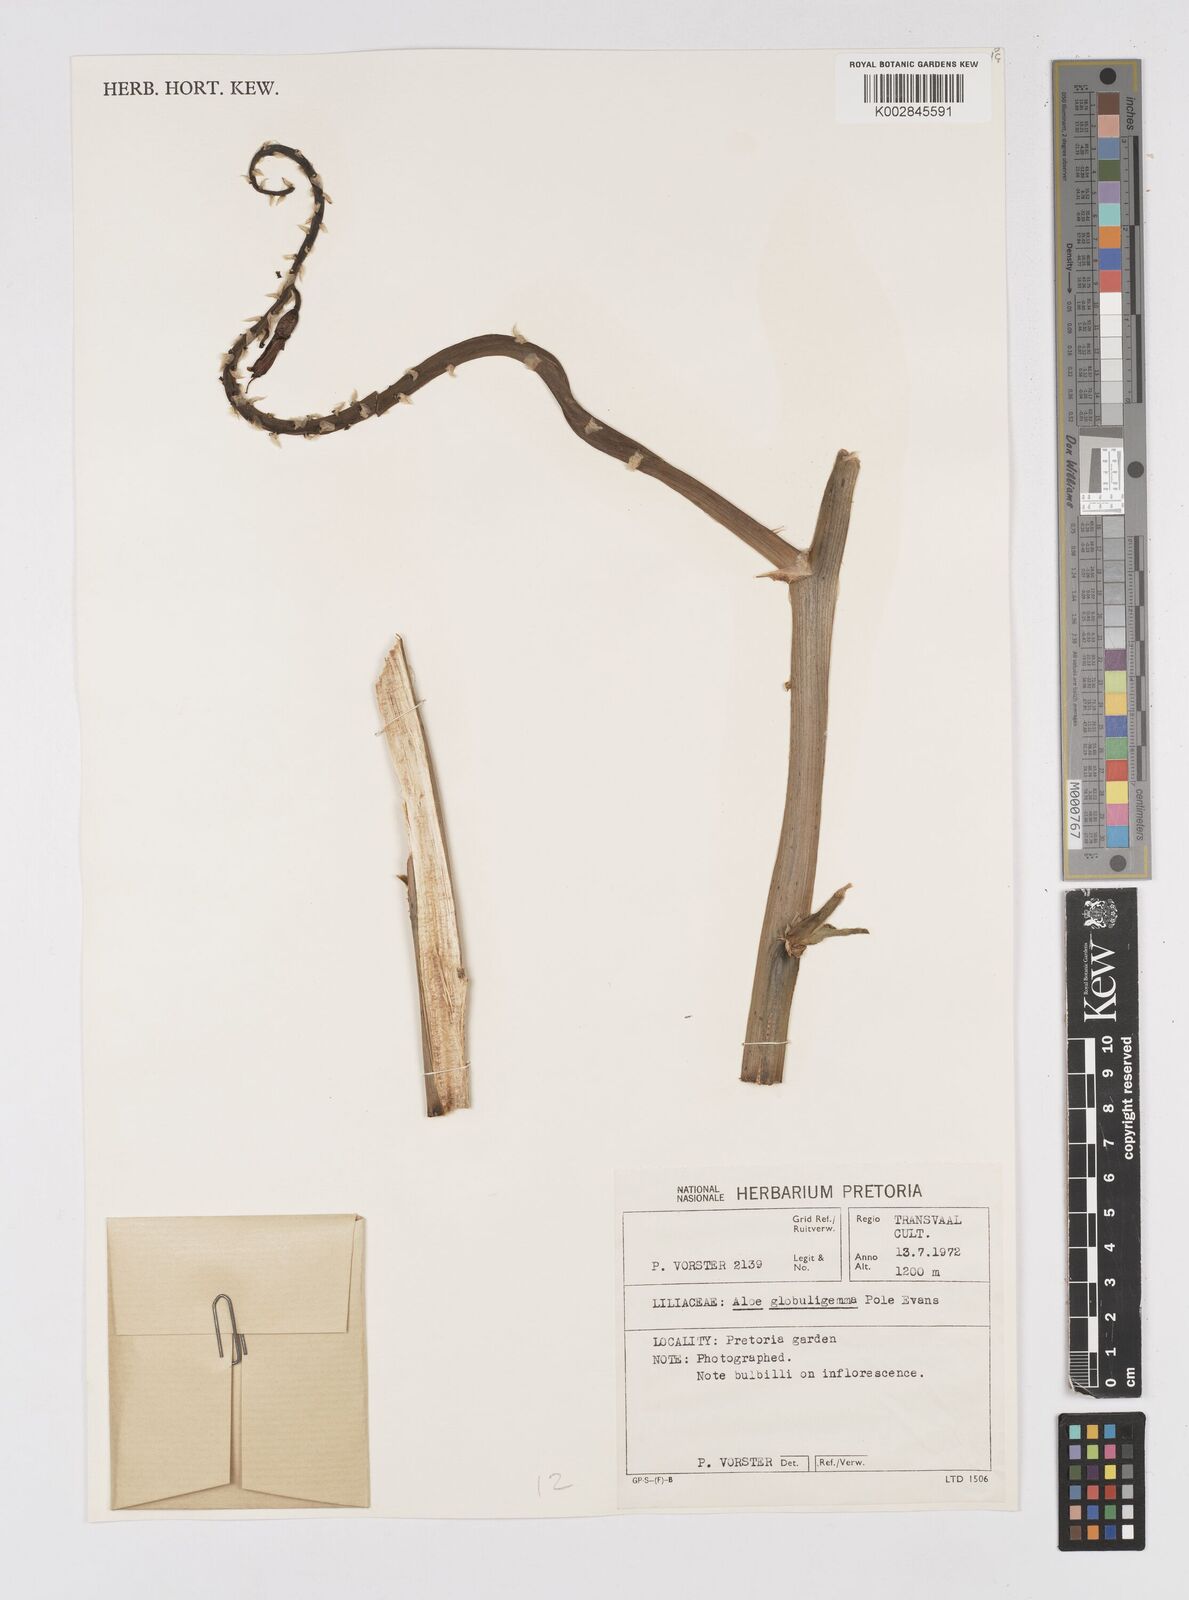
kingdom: Plantae
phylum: Tracheophyta
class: Liliopsida
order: Asparagales
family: Asphodelaceae
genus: Aloe
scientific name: Aloe globuligemma
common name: Witchdoctor's aloe
